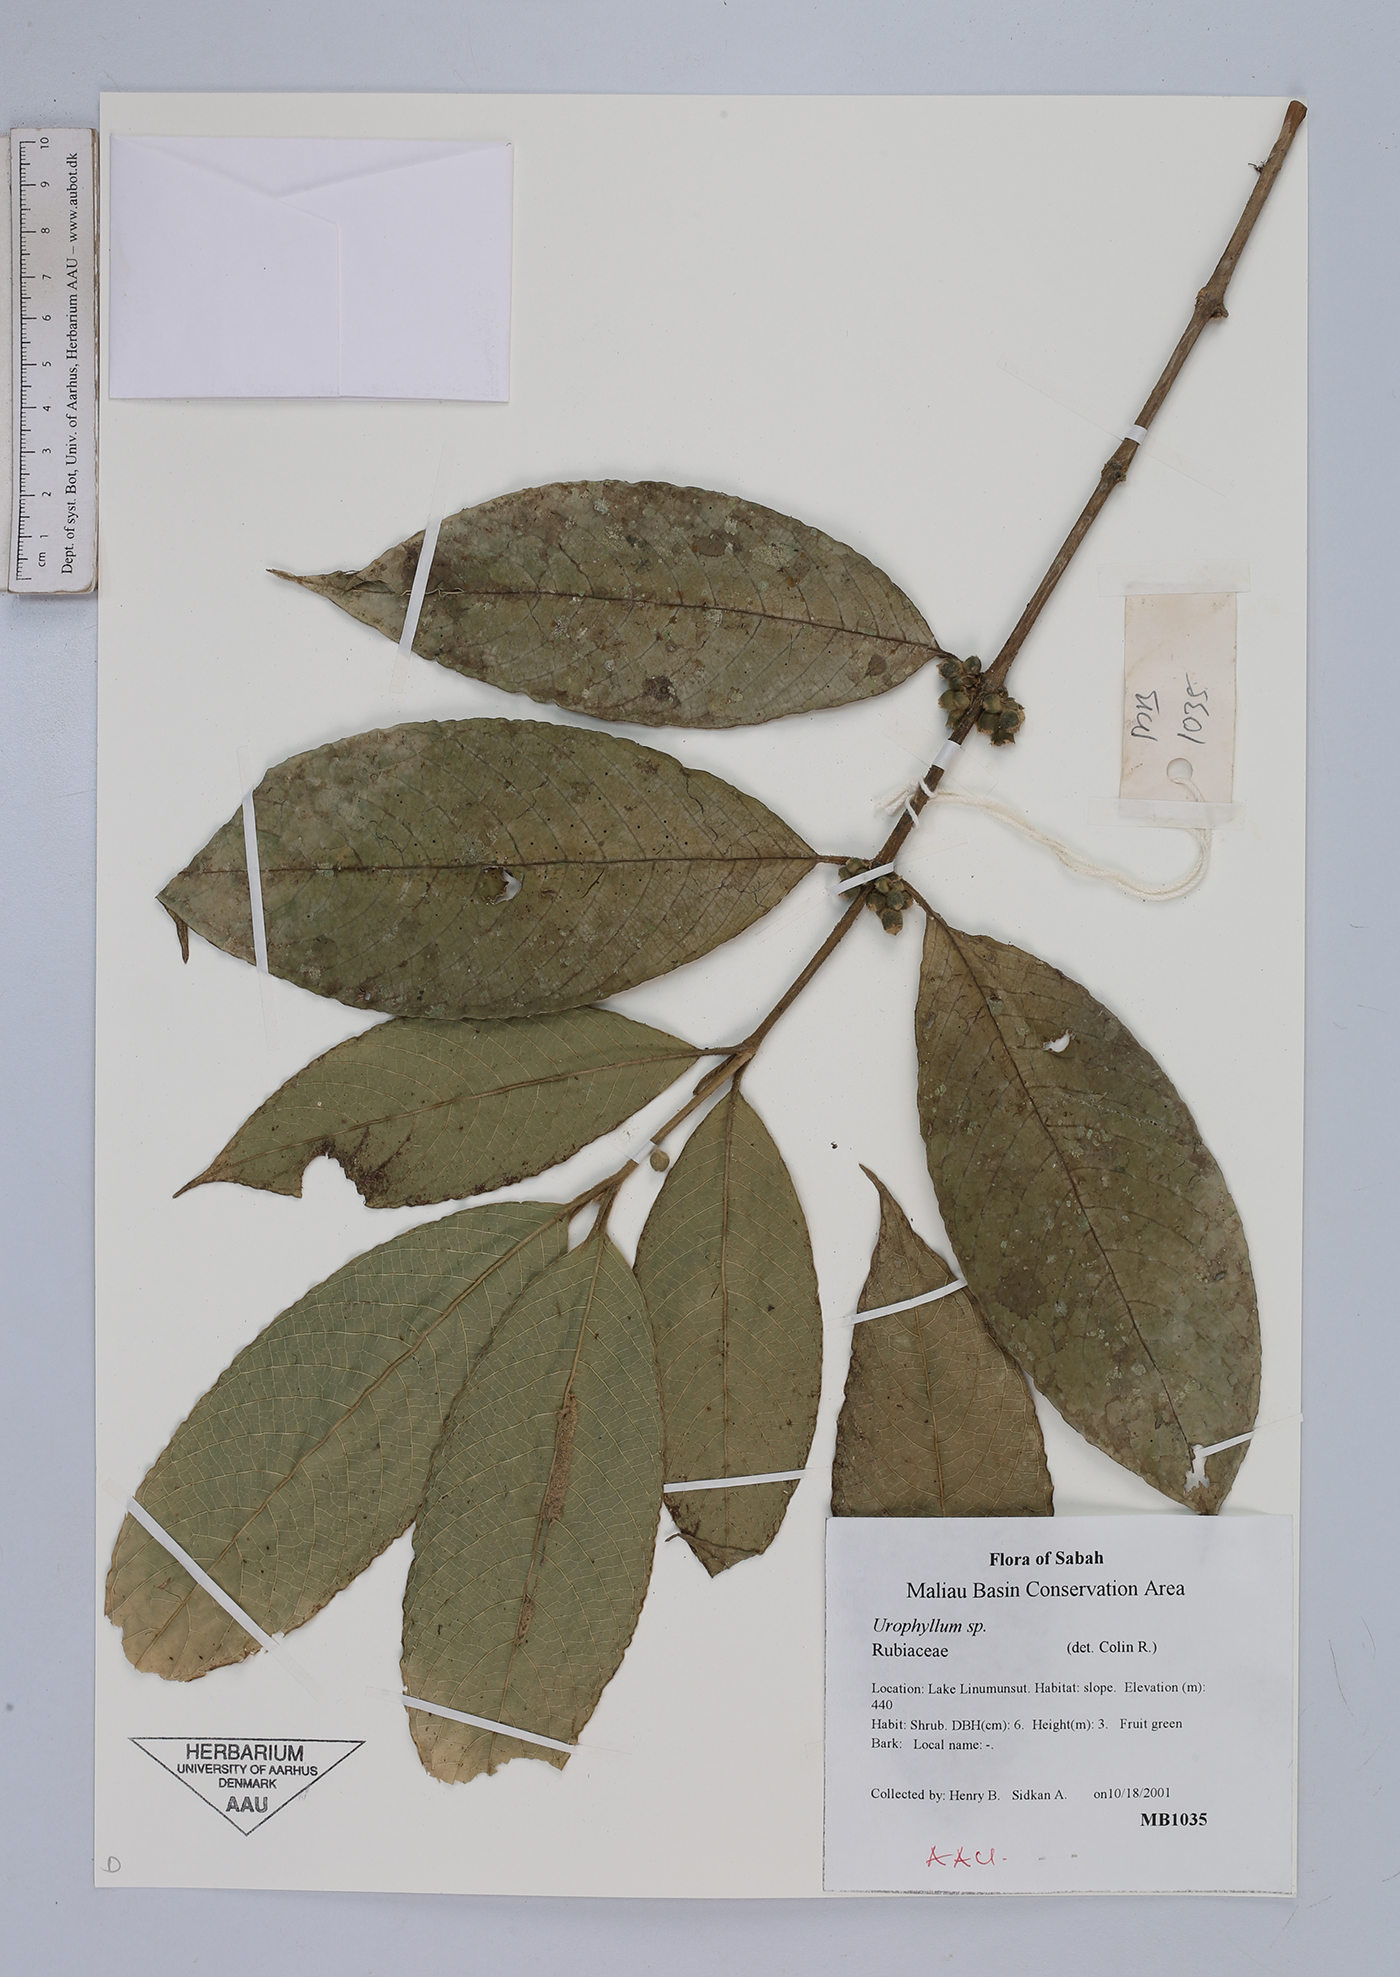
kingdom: Plantae
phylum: Tracheophyta
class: Magnoliopsida
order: Gentianales
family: Rubiaceae
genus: Urophyllum
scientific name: Urophyllum
